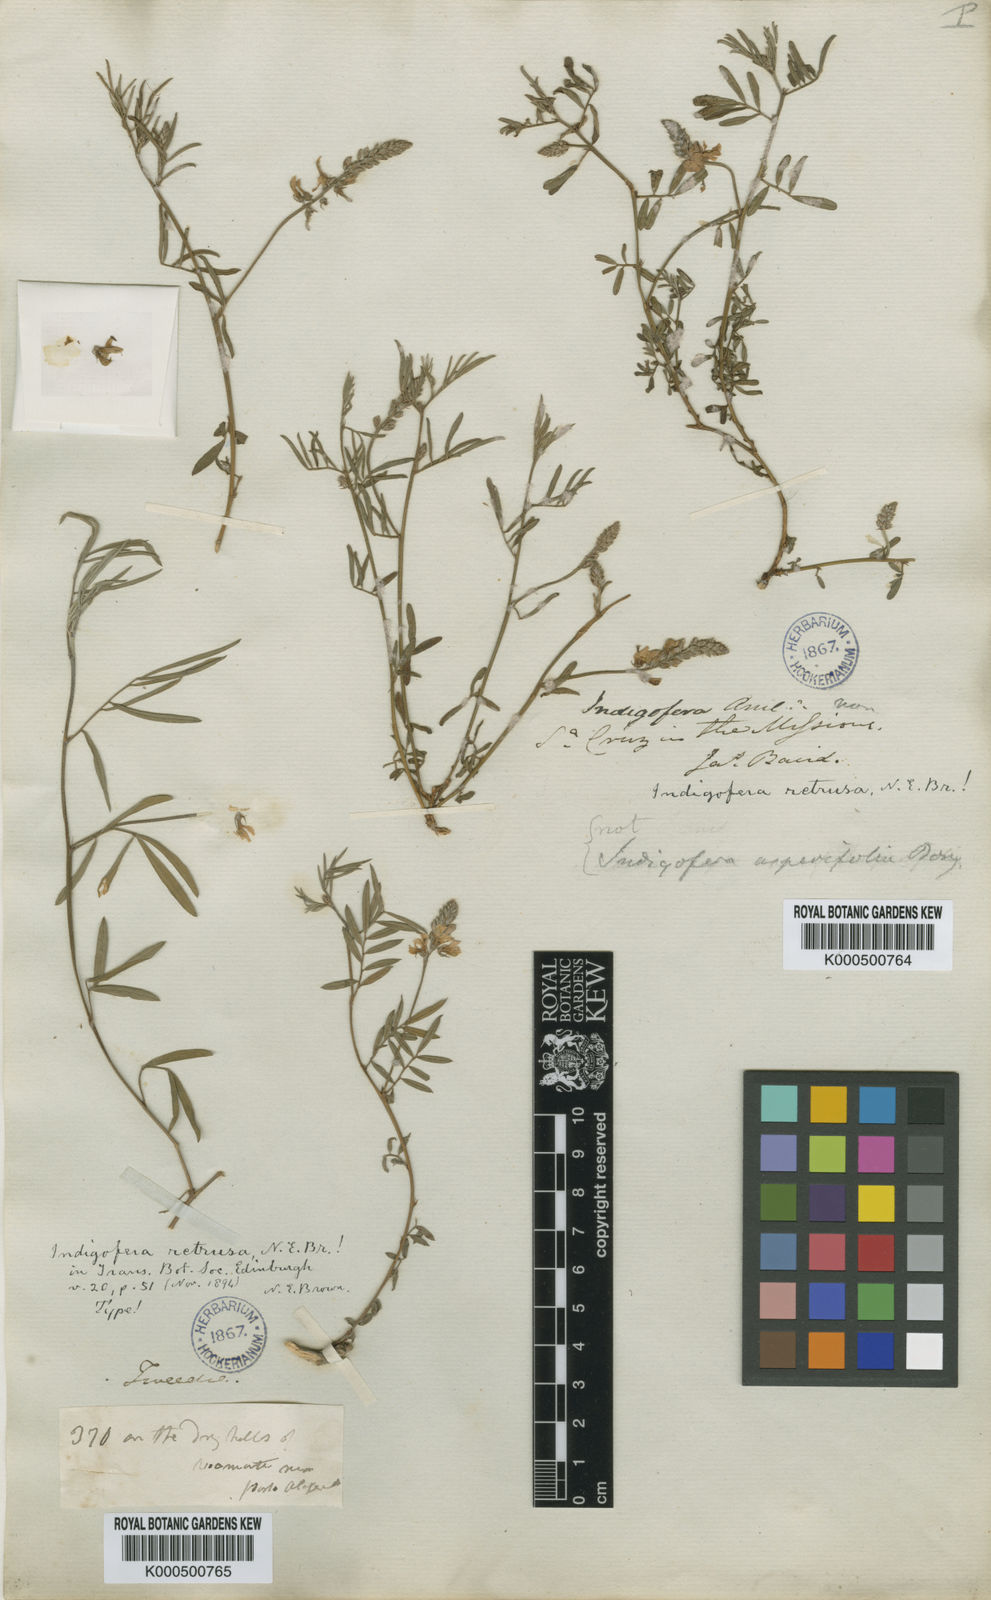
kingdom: Plantae
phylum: Tracheophyta
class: Magnoliopsida
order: Fabales
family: Fabaceae
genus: Indigofera
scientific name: Indigofera asperifolia
